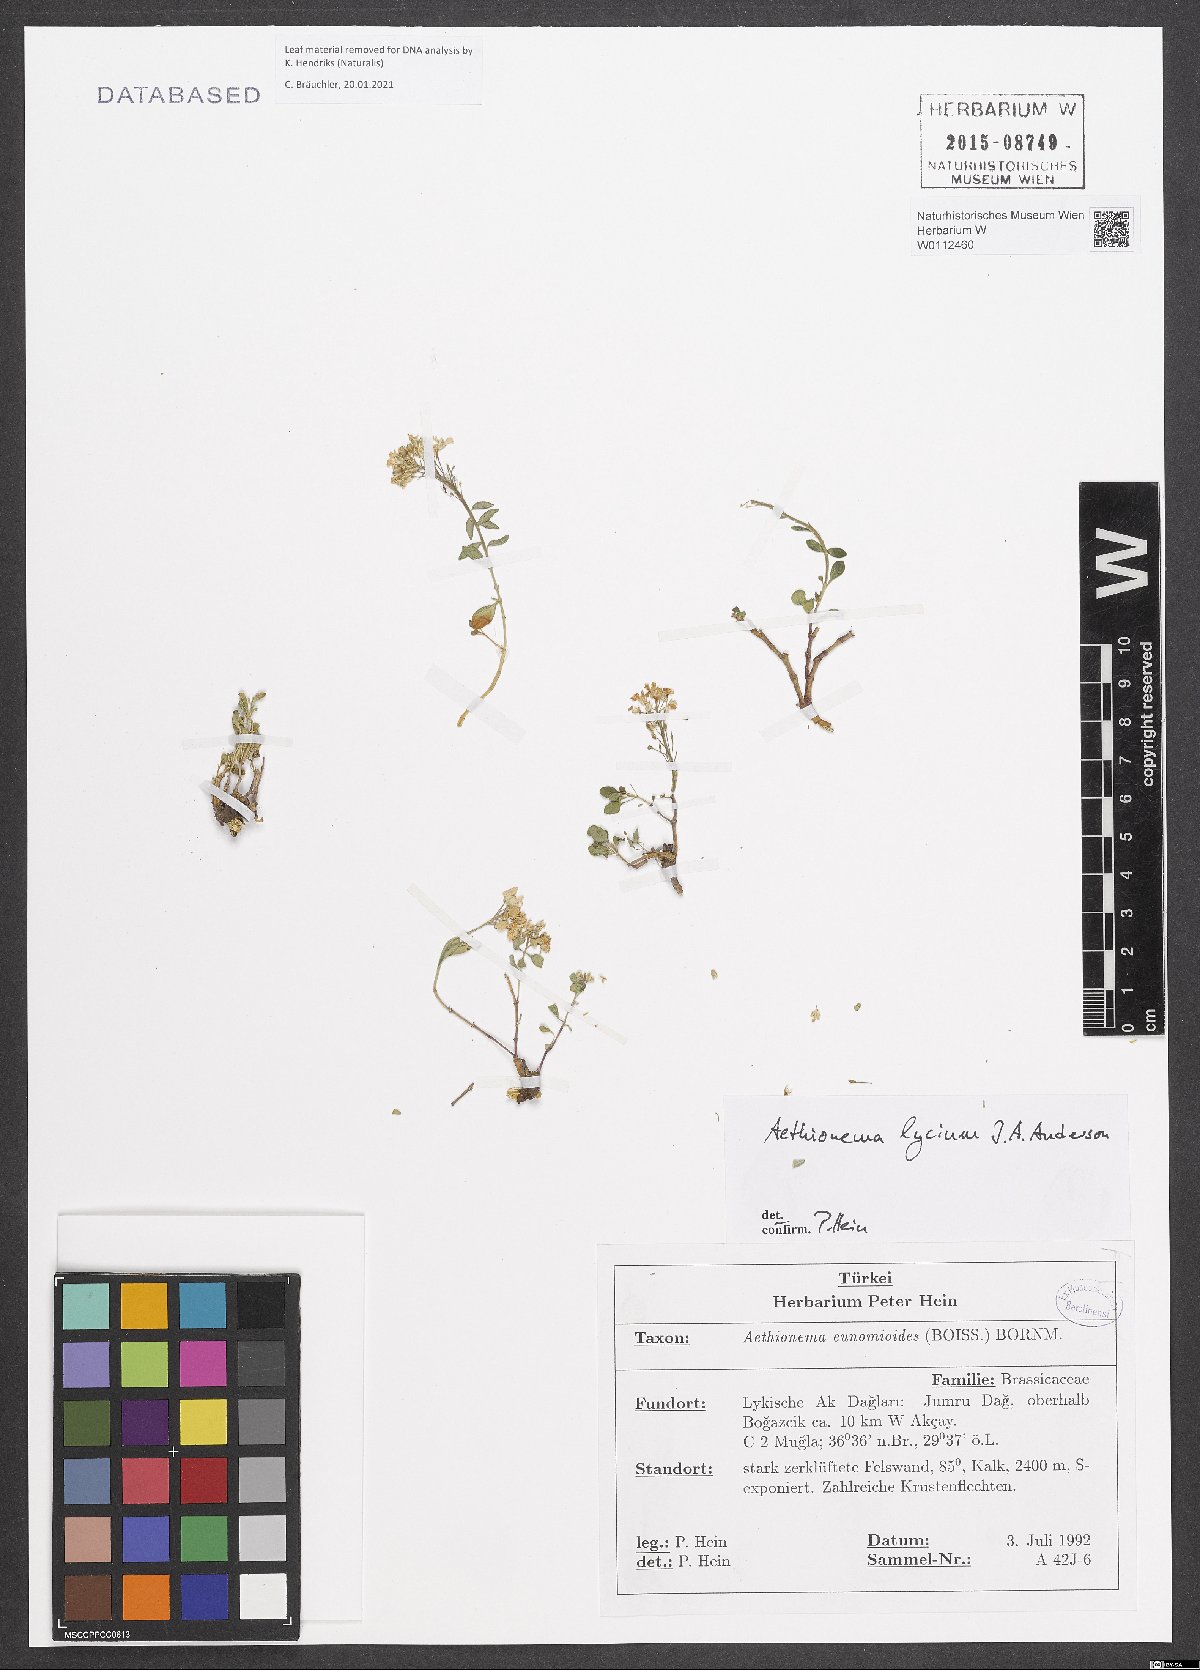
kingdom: Plantae
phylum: Tracheophyta
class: Magnoliopsida
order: Brassicales
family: Brassicaceae
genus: Aethionema
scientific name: Aethionema lycium
